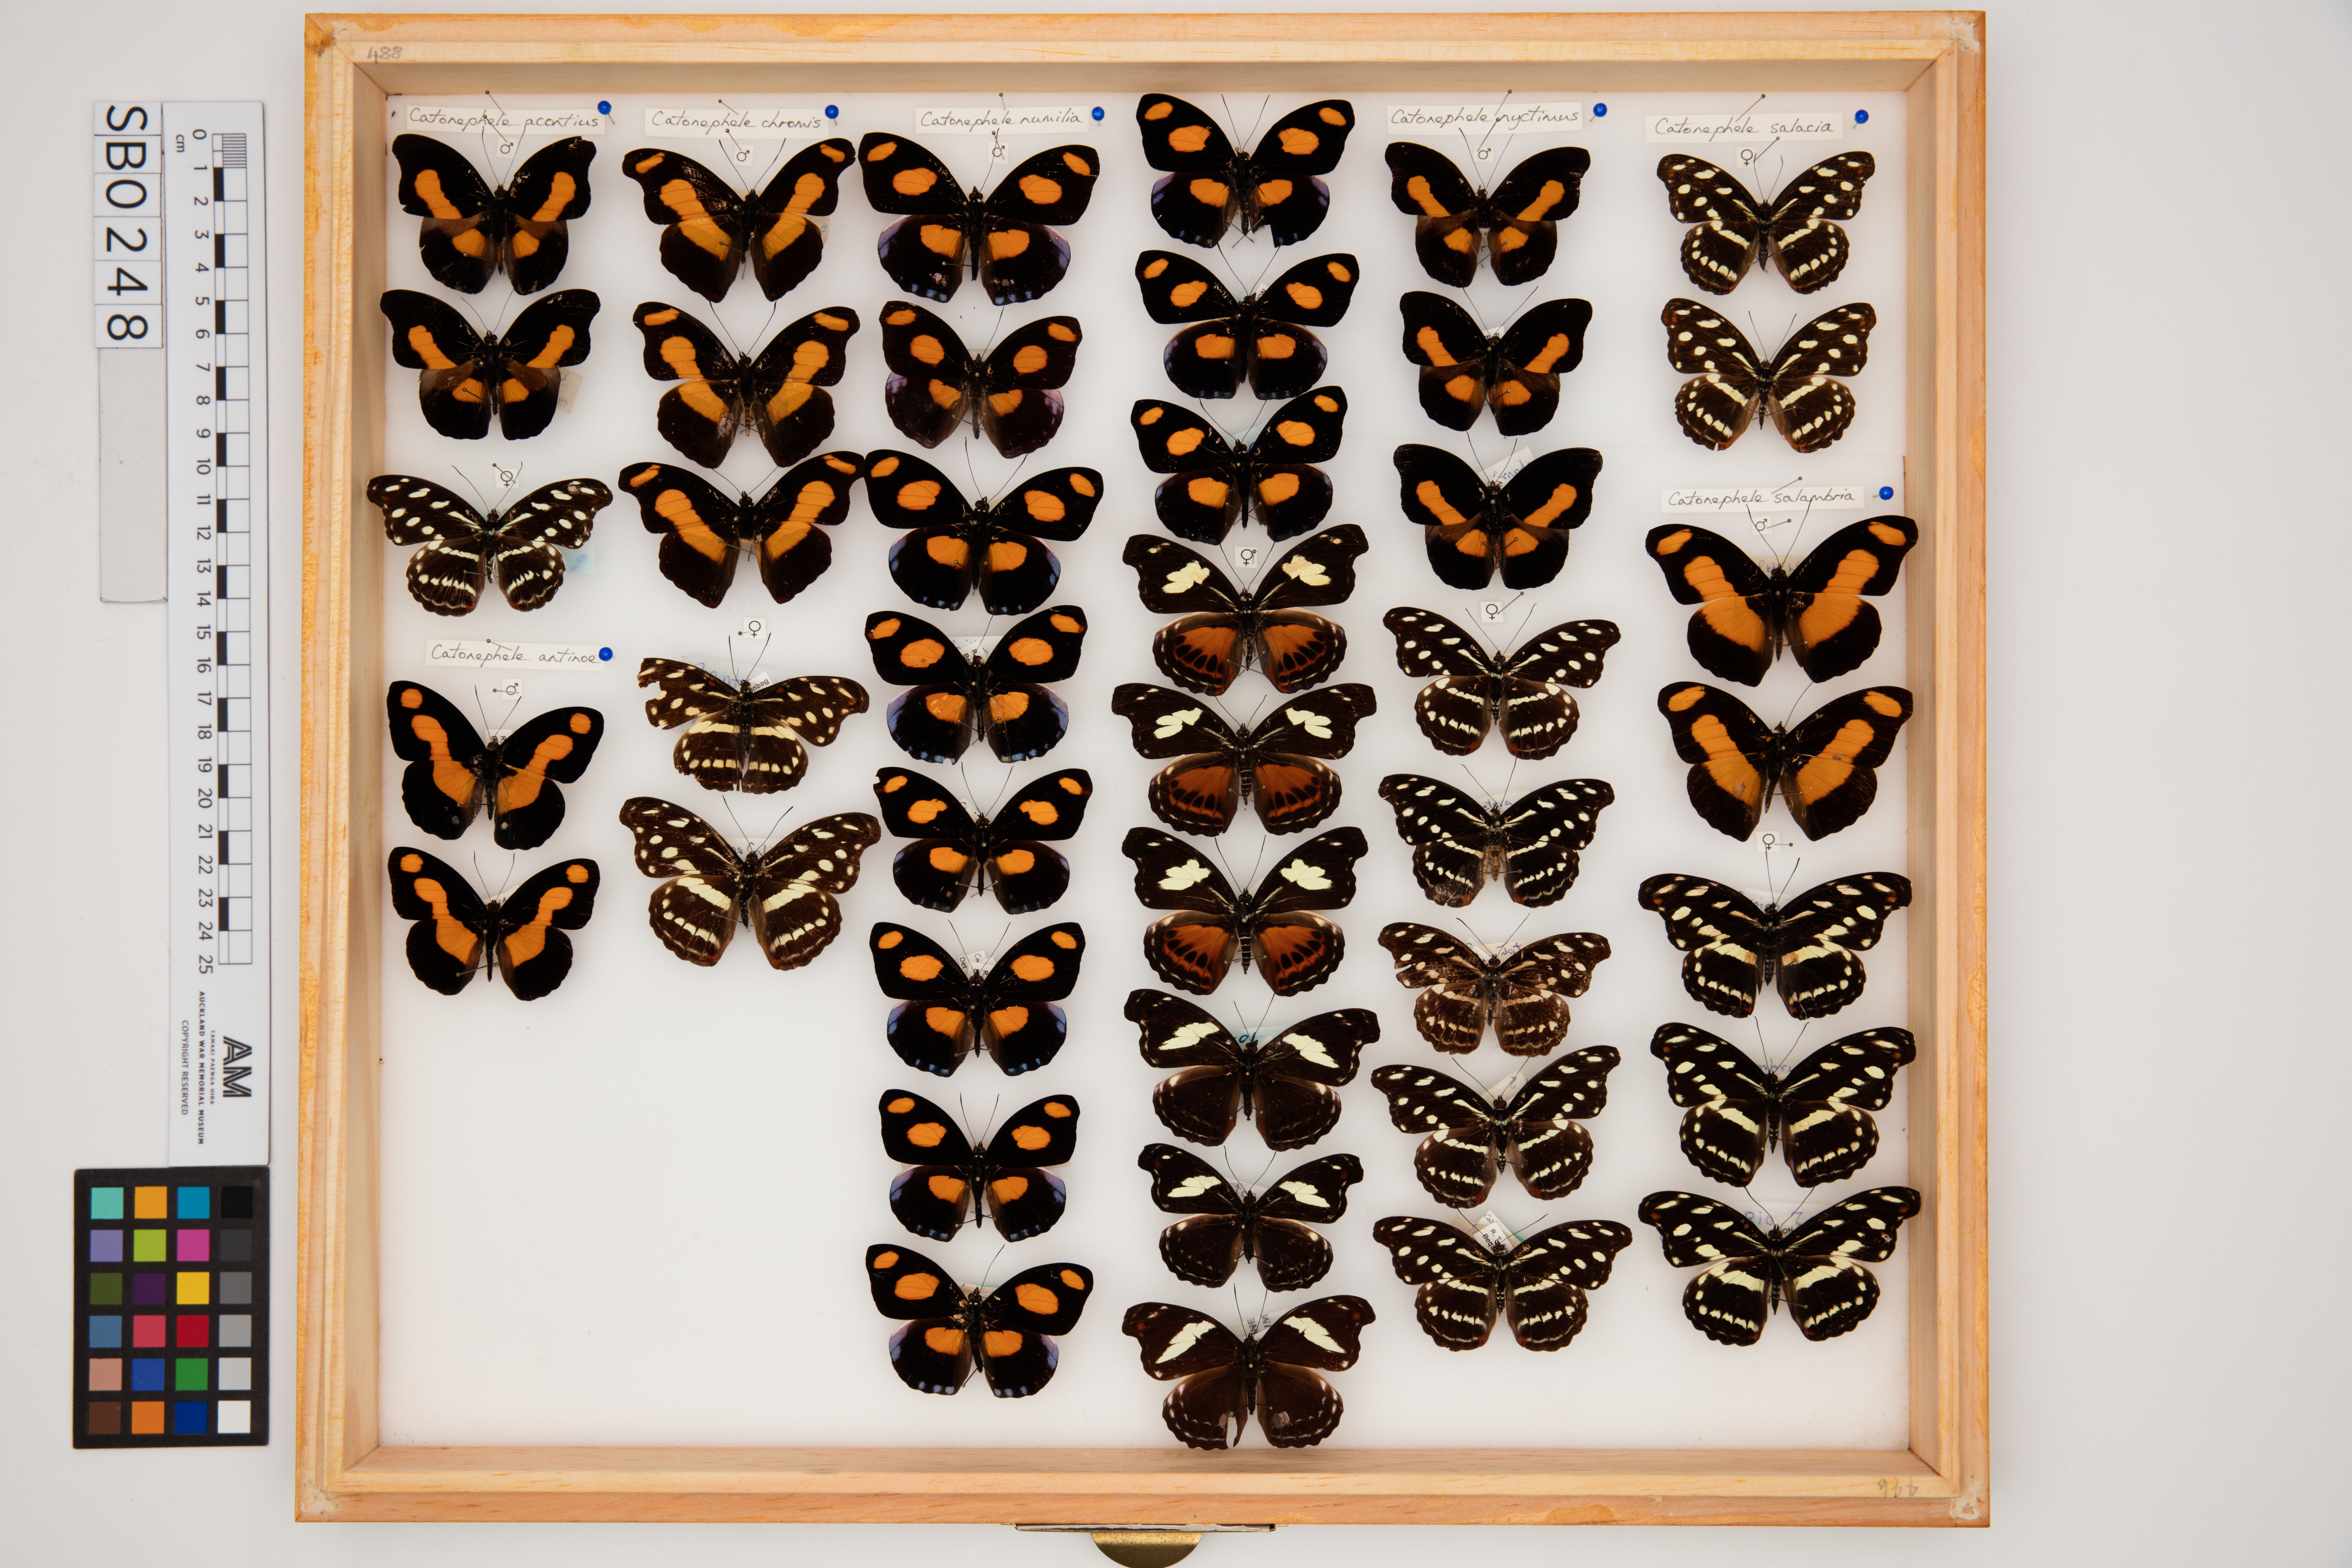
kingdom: Animalia
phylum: Arthropoda
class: Insecta
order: Lepidoptera
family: Nymphalidae
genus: Catonephele
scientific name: Catonephele antinoe
